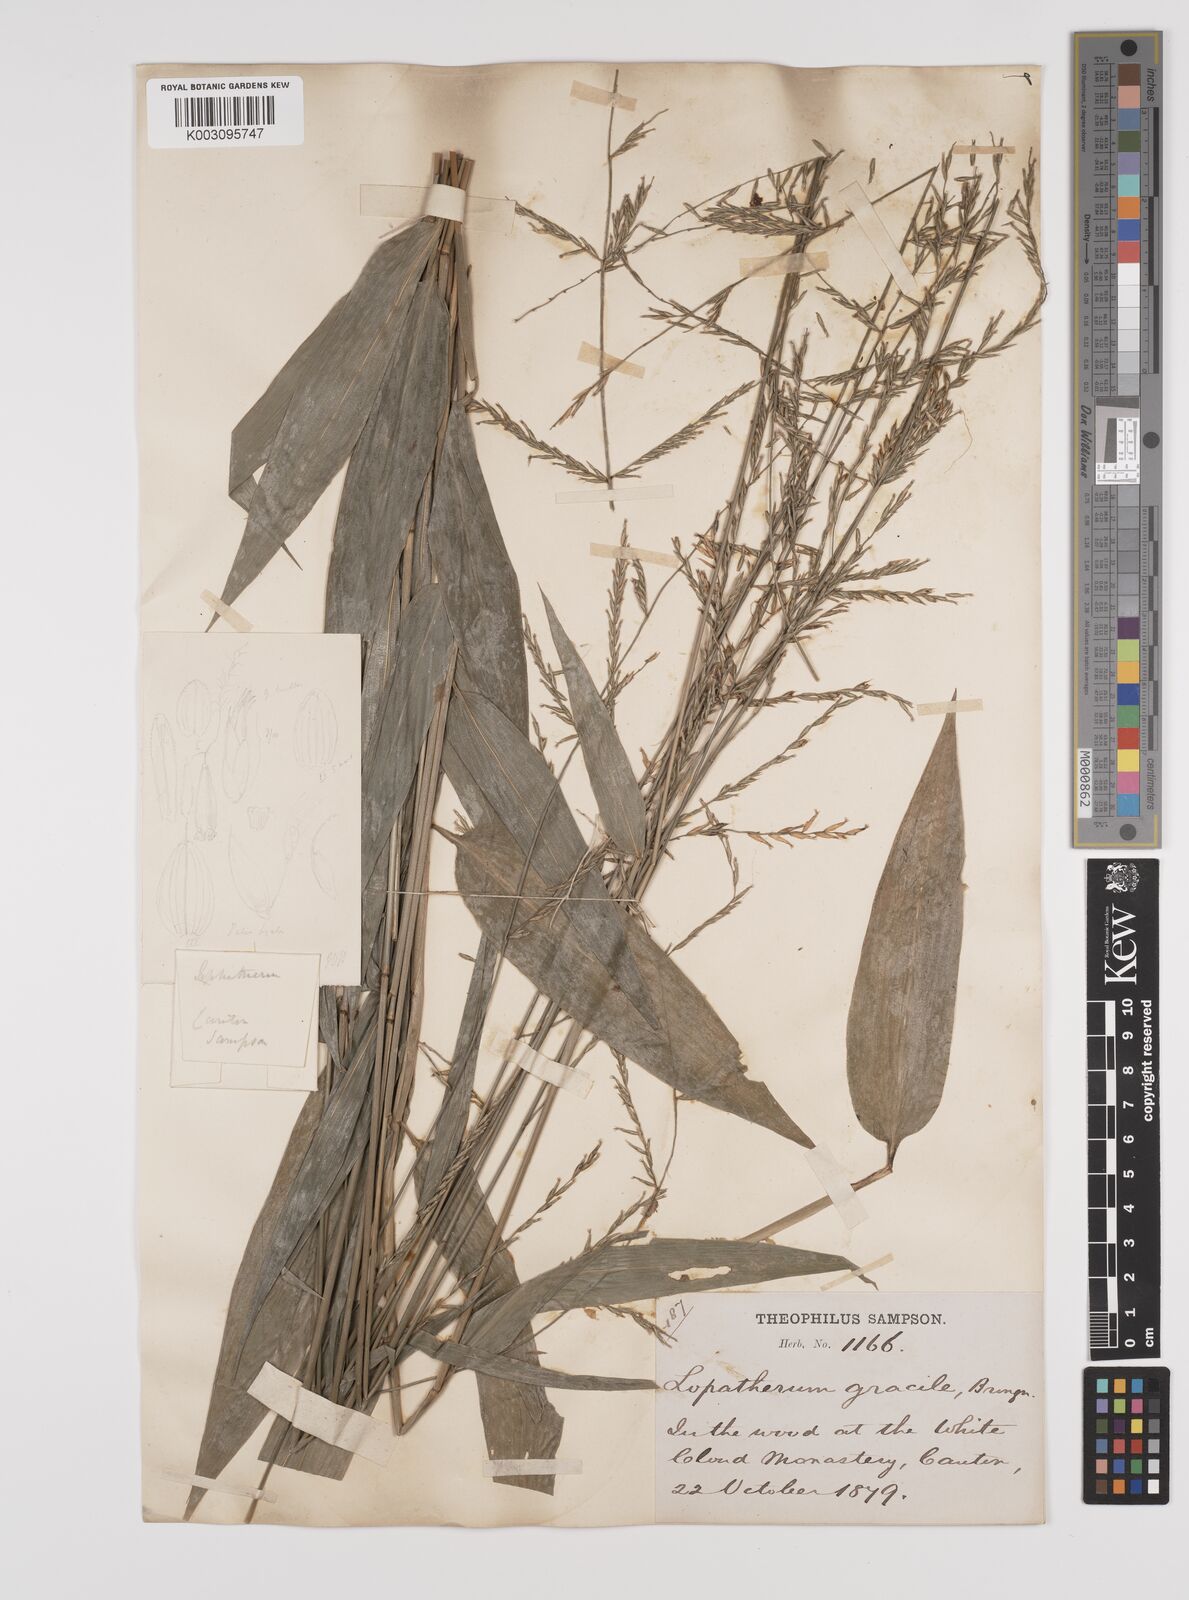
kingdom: Plantae
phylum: Tracheophyta
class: Liliopsida
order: Poales
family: Poaceae
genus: Lophatherum
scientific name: Lophatherum gracile
